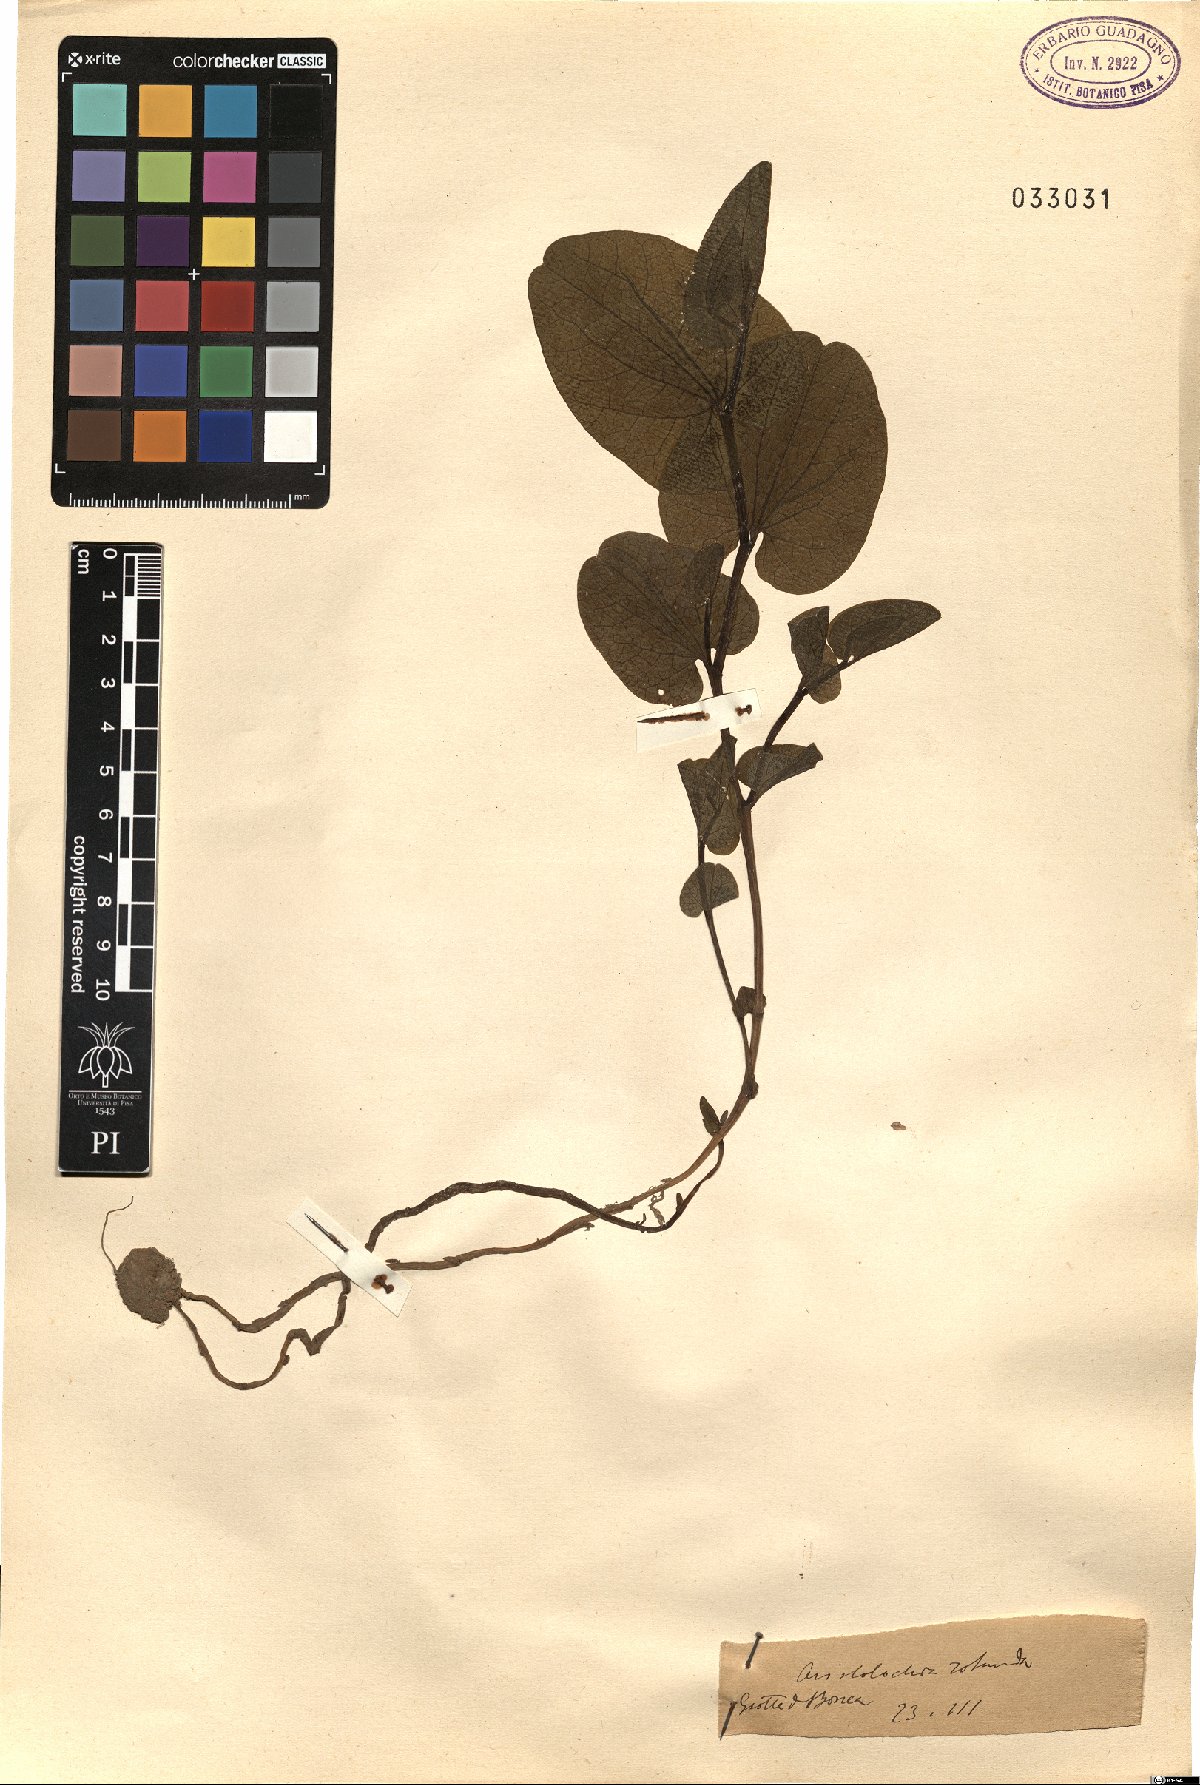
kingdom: Plantae
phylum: Tracheophyta
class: Magnoliopsida
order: Piperales
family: Aristolochiaceae
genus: Aristolochia
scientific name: Aristolochia rotunda
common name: Smearwort
